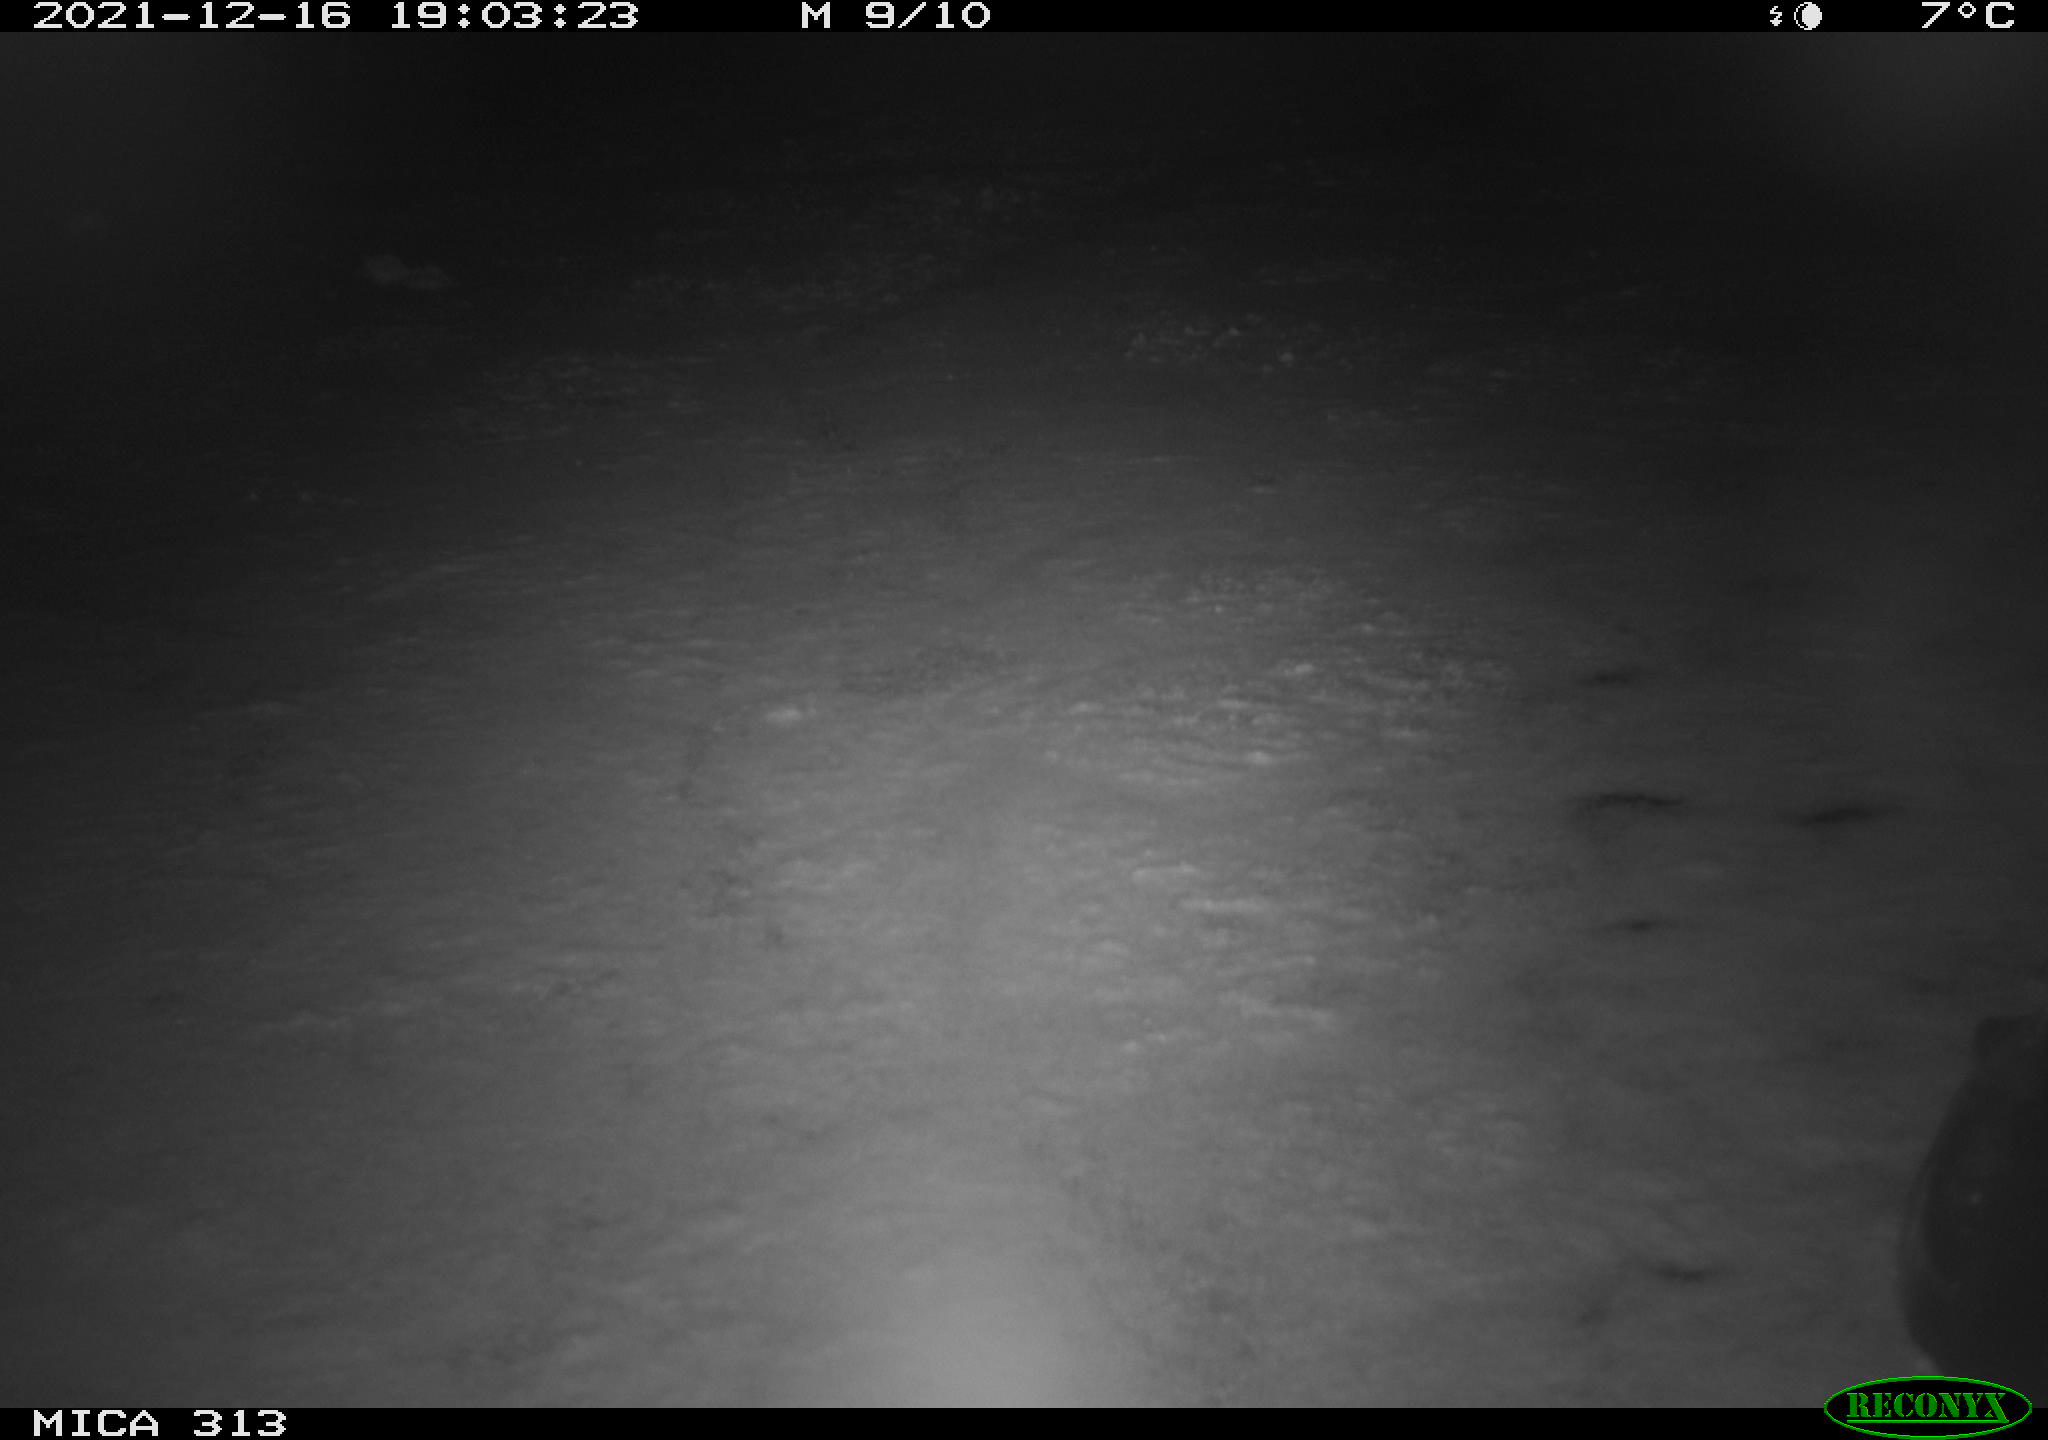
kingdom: Animalia
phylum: Chordata
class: Aves
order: Gruiformes
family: Rallidae
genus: Fulica
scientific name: Fulica atra
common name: Eurasian coot
